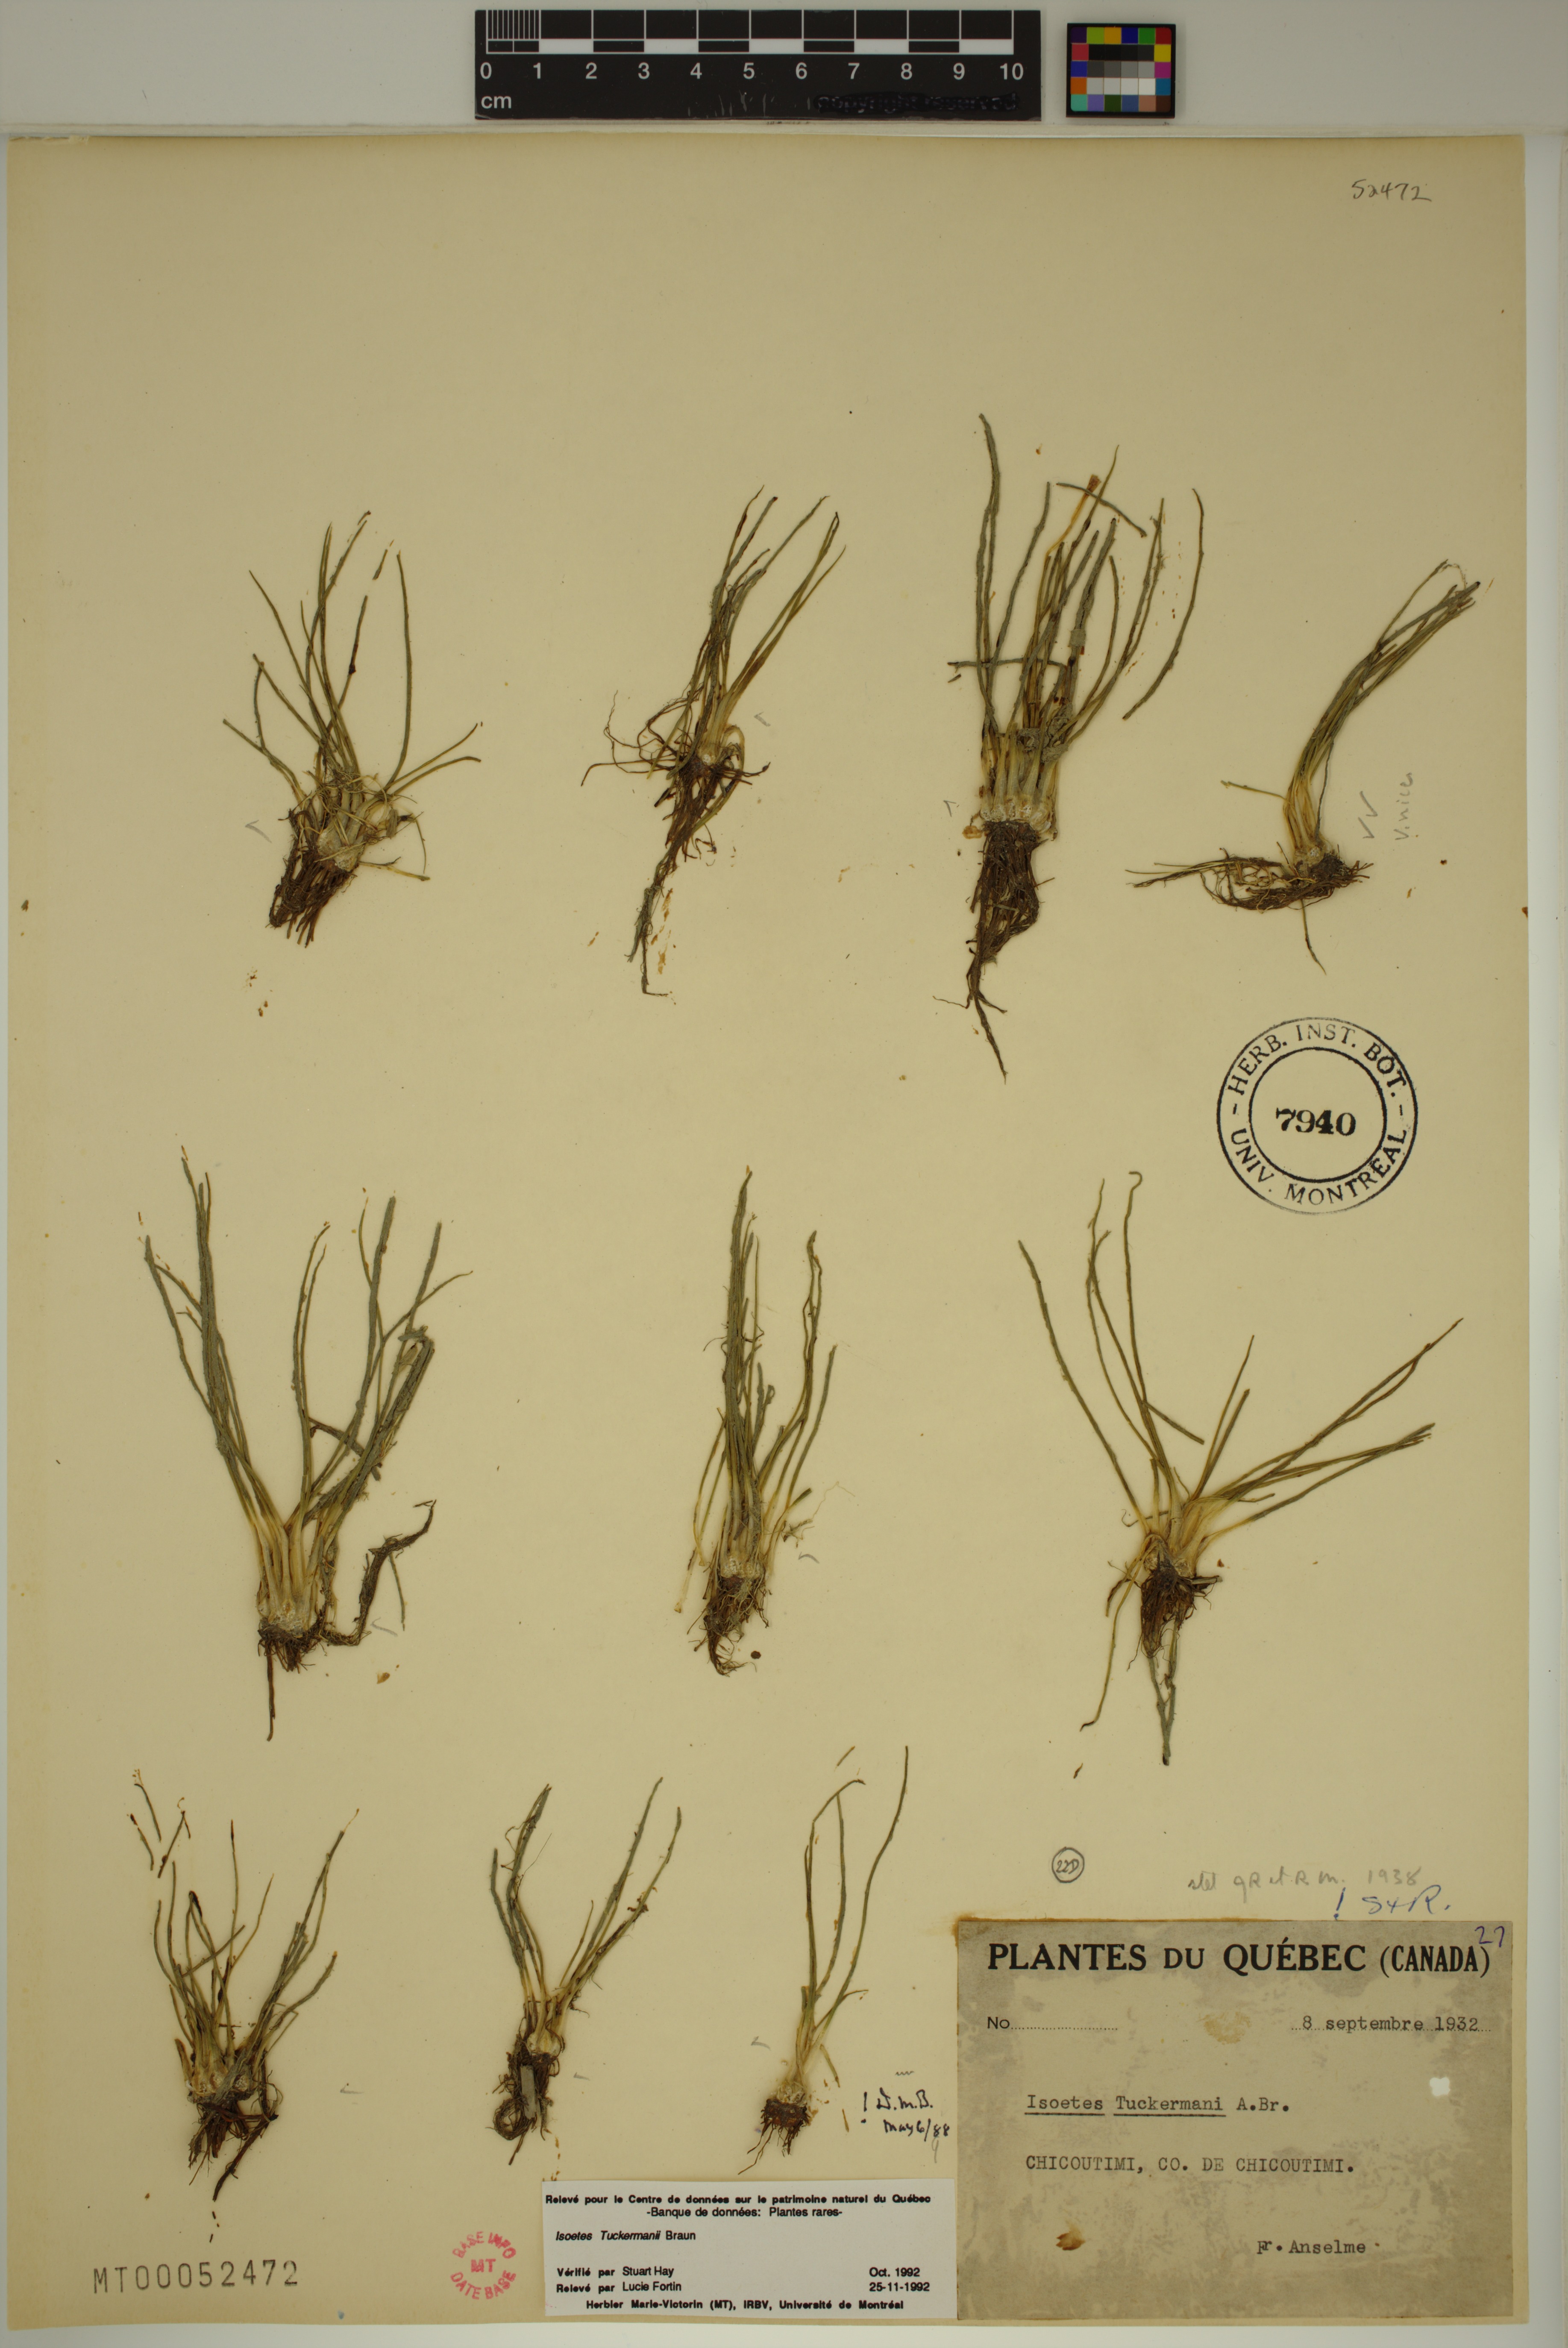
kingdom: Plantae
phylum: Tracheophyta
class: Lycopodiopsida
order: Isoetales
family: Isoetaceae
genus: Isoetes
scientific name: Isoetes tuckermanii
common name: Tuckerman's quillwort
